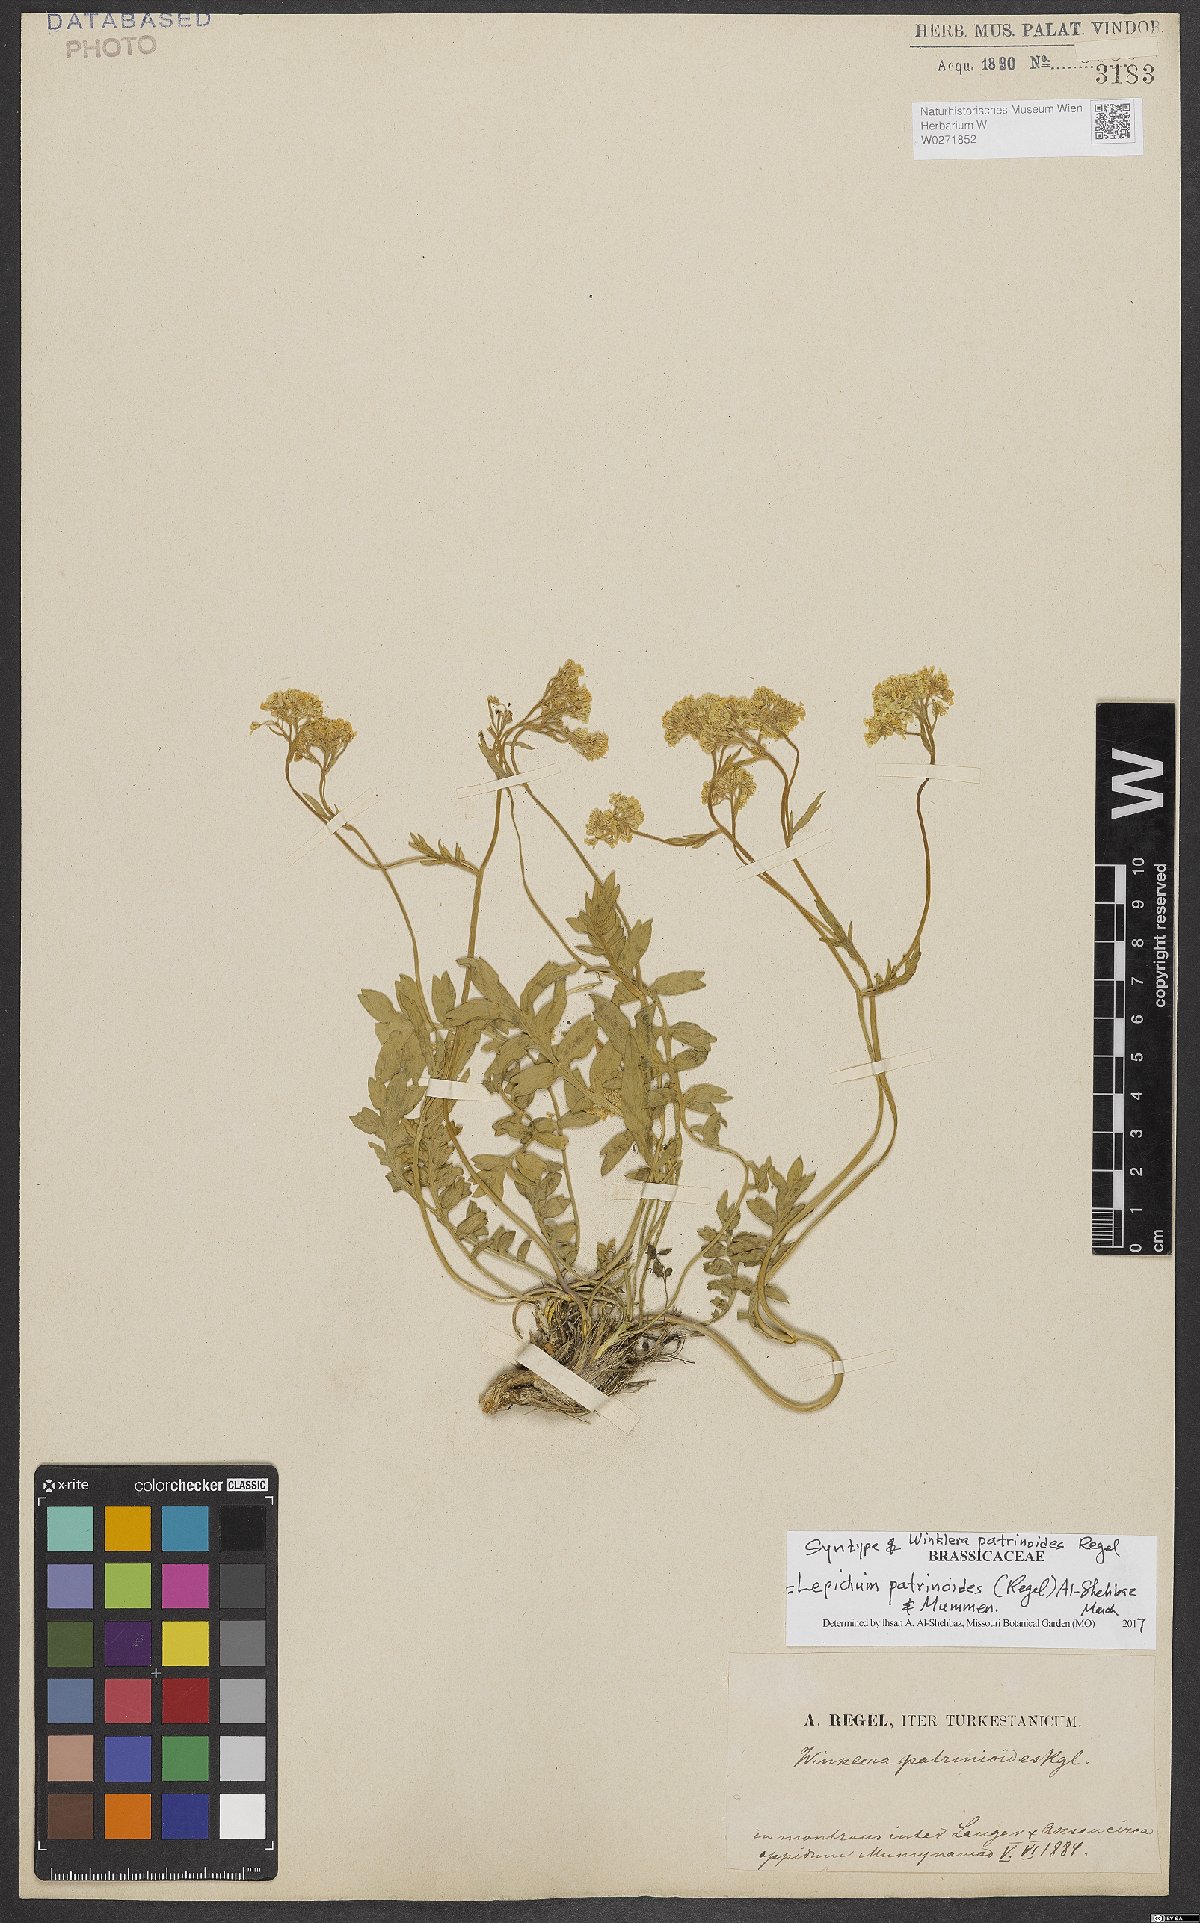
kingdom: Plantae
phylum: Tracheophyta
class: Magnoliopsida
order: Brassicales
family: Brassicaceae
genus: Lepidium
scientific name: Lepidium patrinoides
